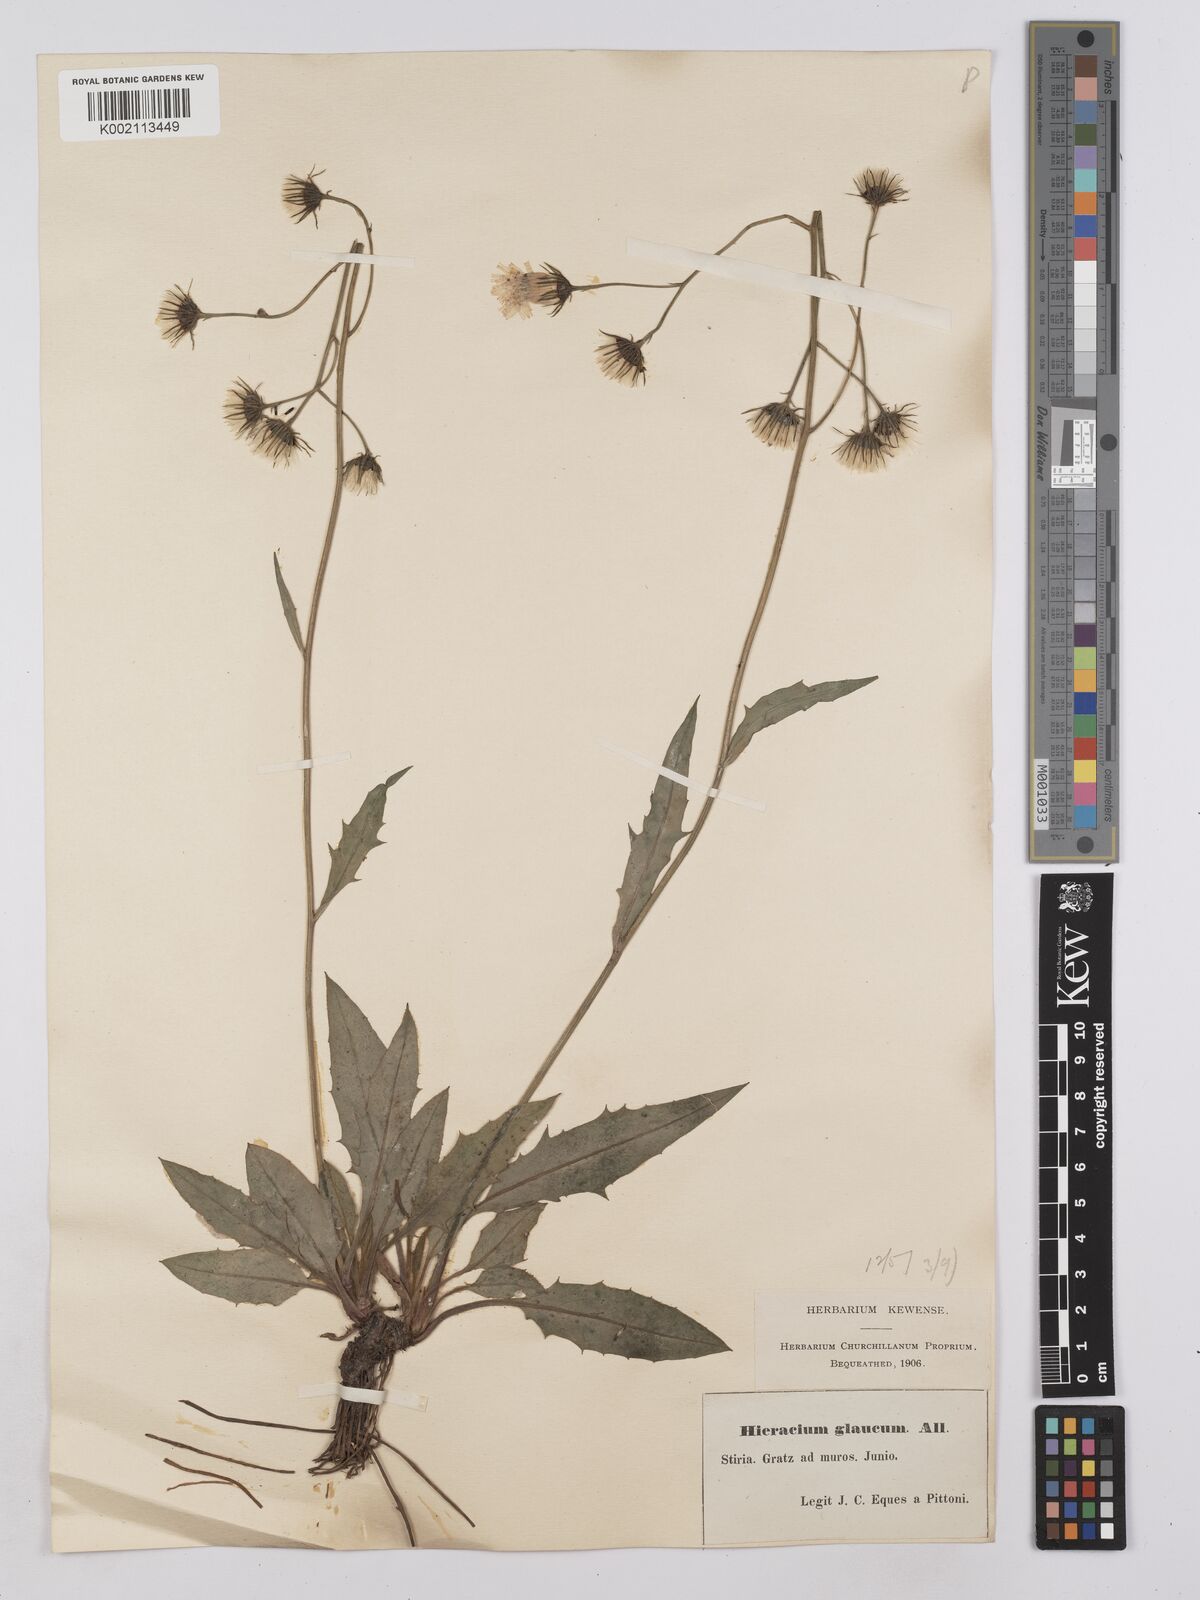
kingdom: Plantae
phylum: Tracheophyta
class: Magnoliopsida
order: Asterales
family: Asteraceae
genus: Hieracium
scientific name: Hieracium calcareum
